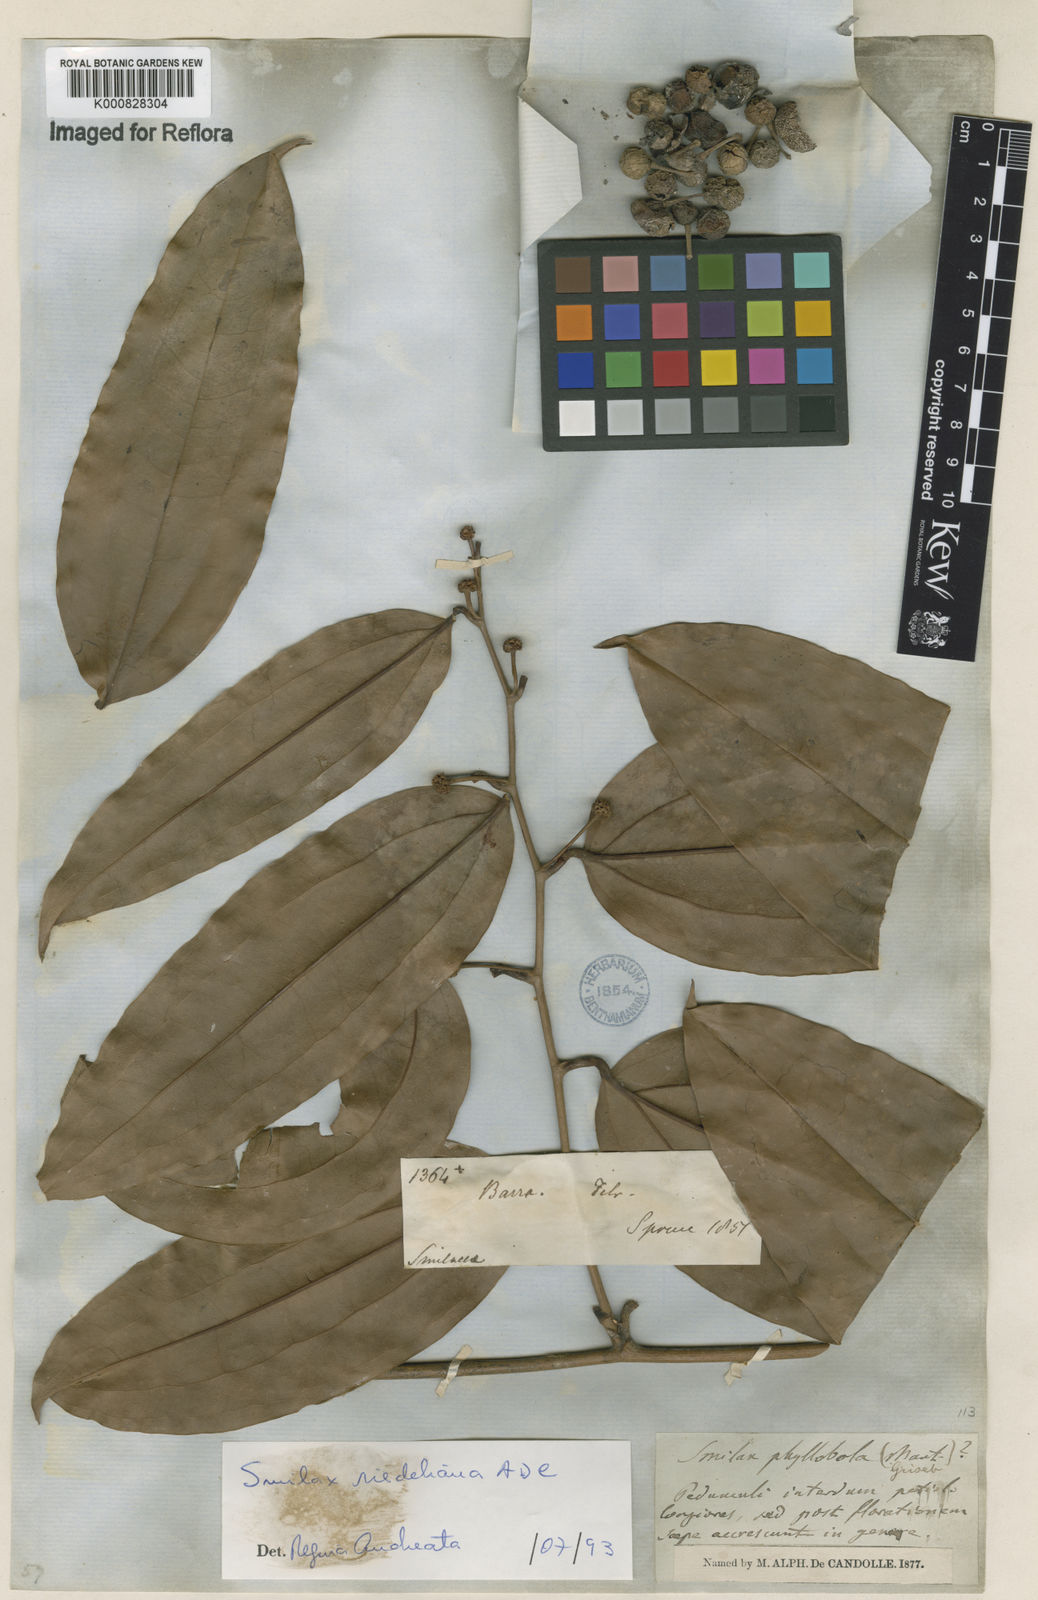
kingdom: Plantae
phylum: Tracheophyta
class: Liliopsida
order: Liliales
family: Smilacaceae
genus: Smilax
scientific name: Smilax irrorata
